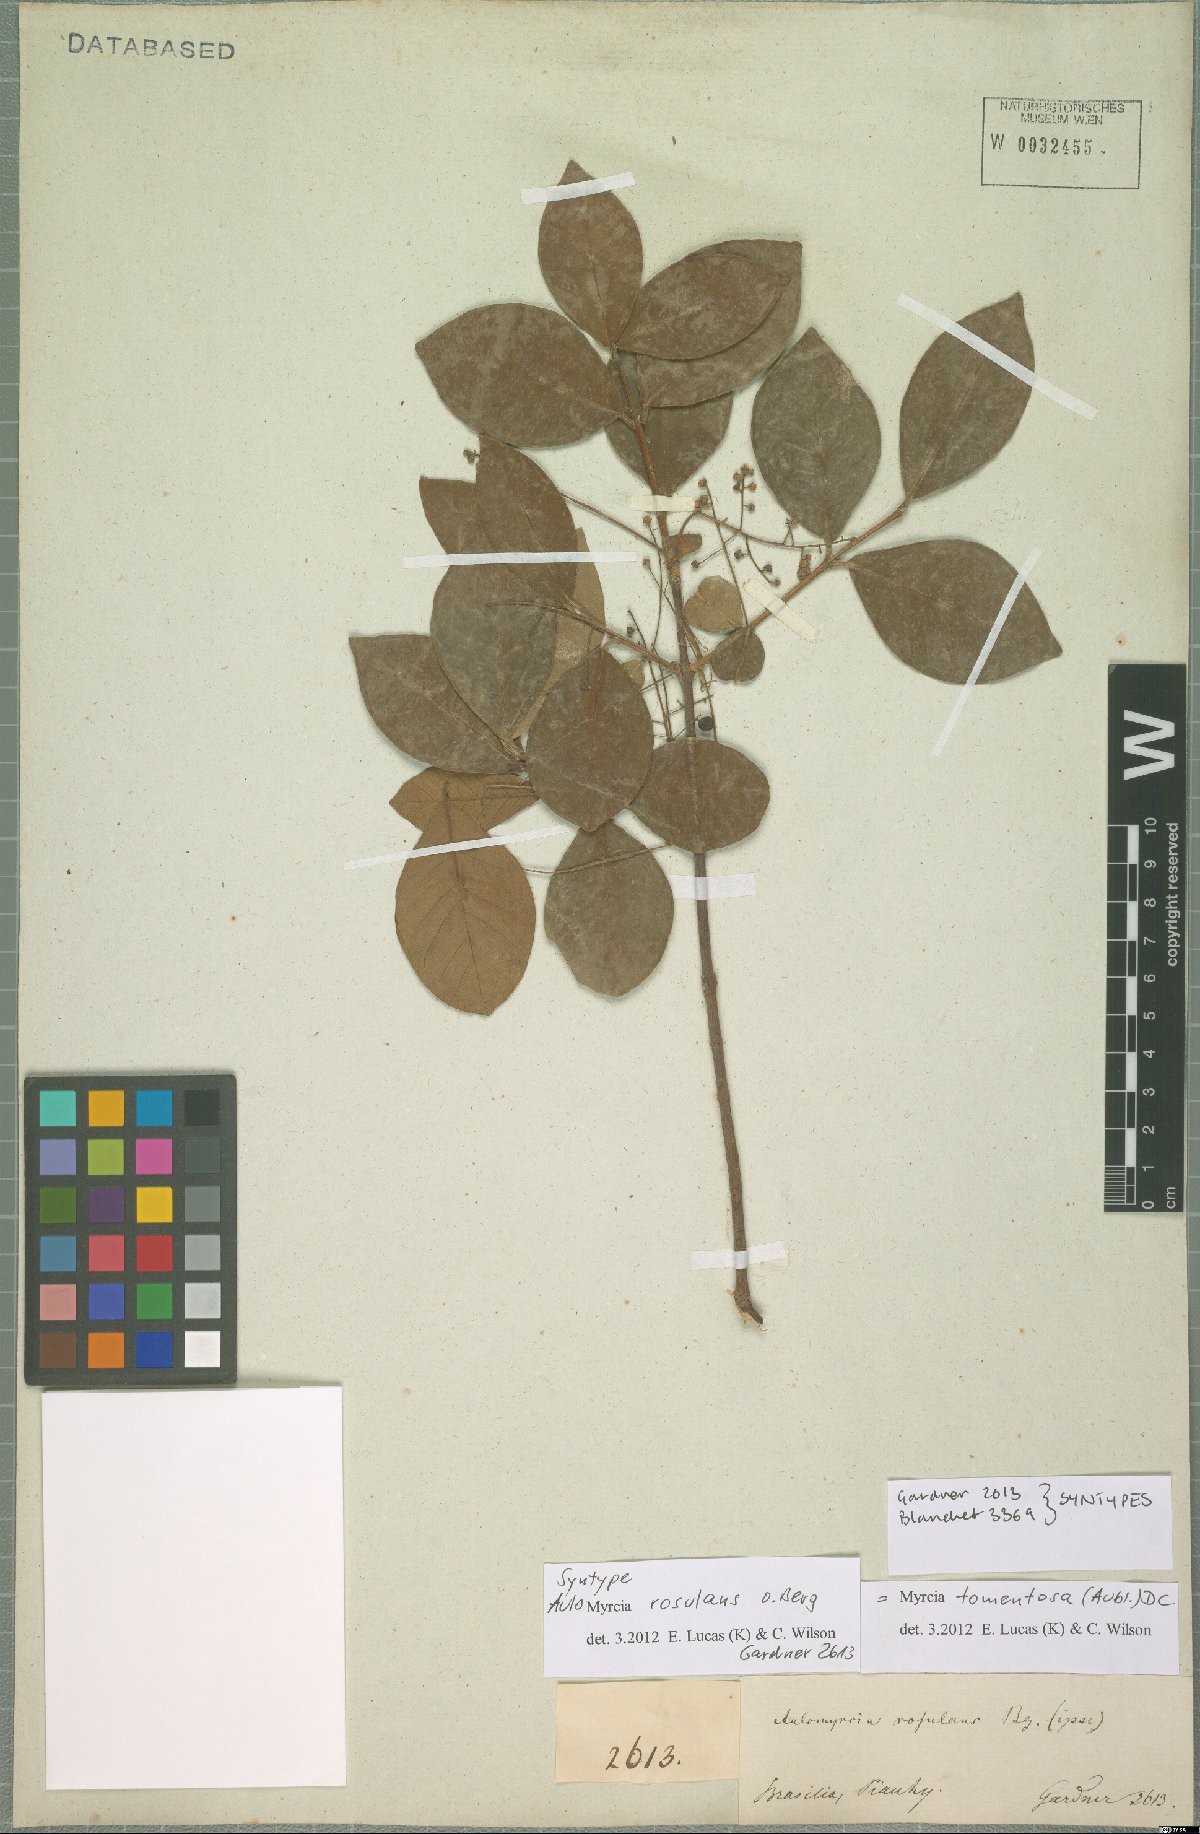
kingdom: Plantae
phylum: Tracheophyta
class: Magnoliopsida
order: Myrtales
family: Myrtaceae
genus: Myrcia
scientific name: Myrcia tomentosa
